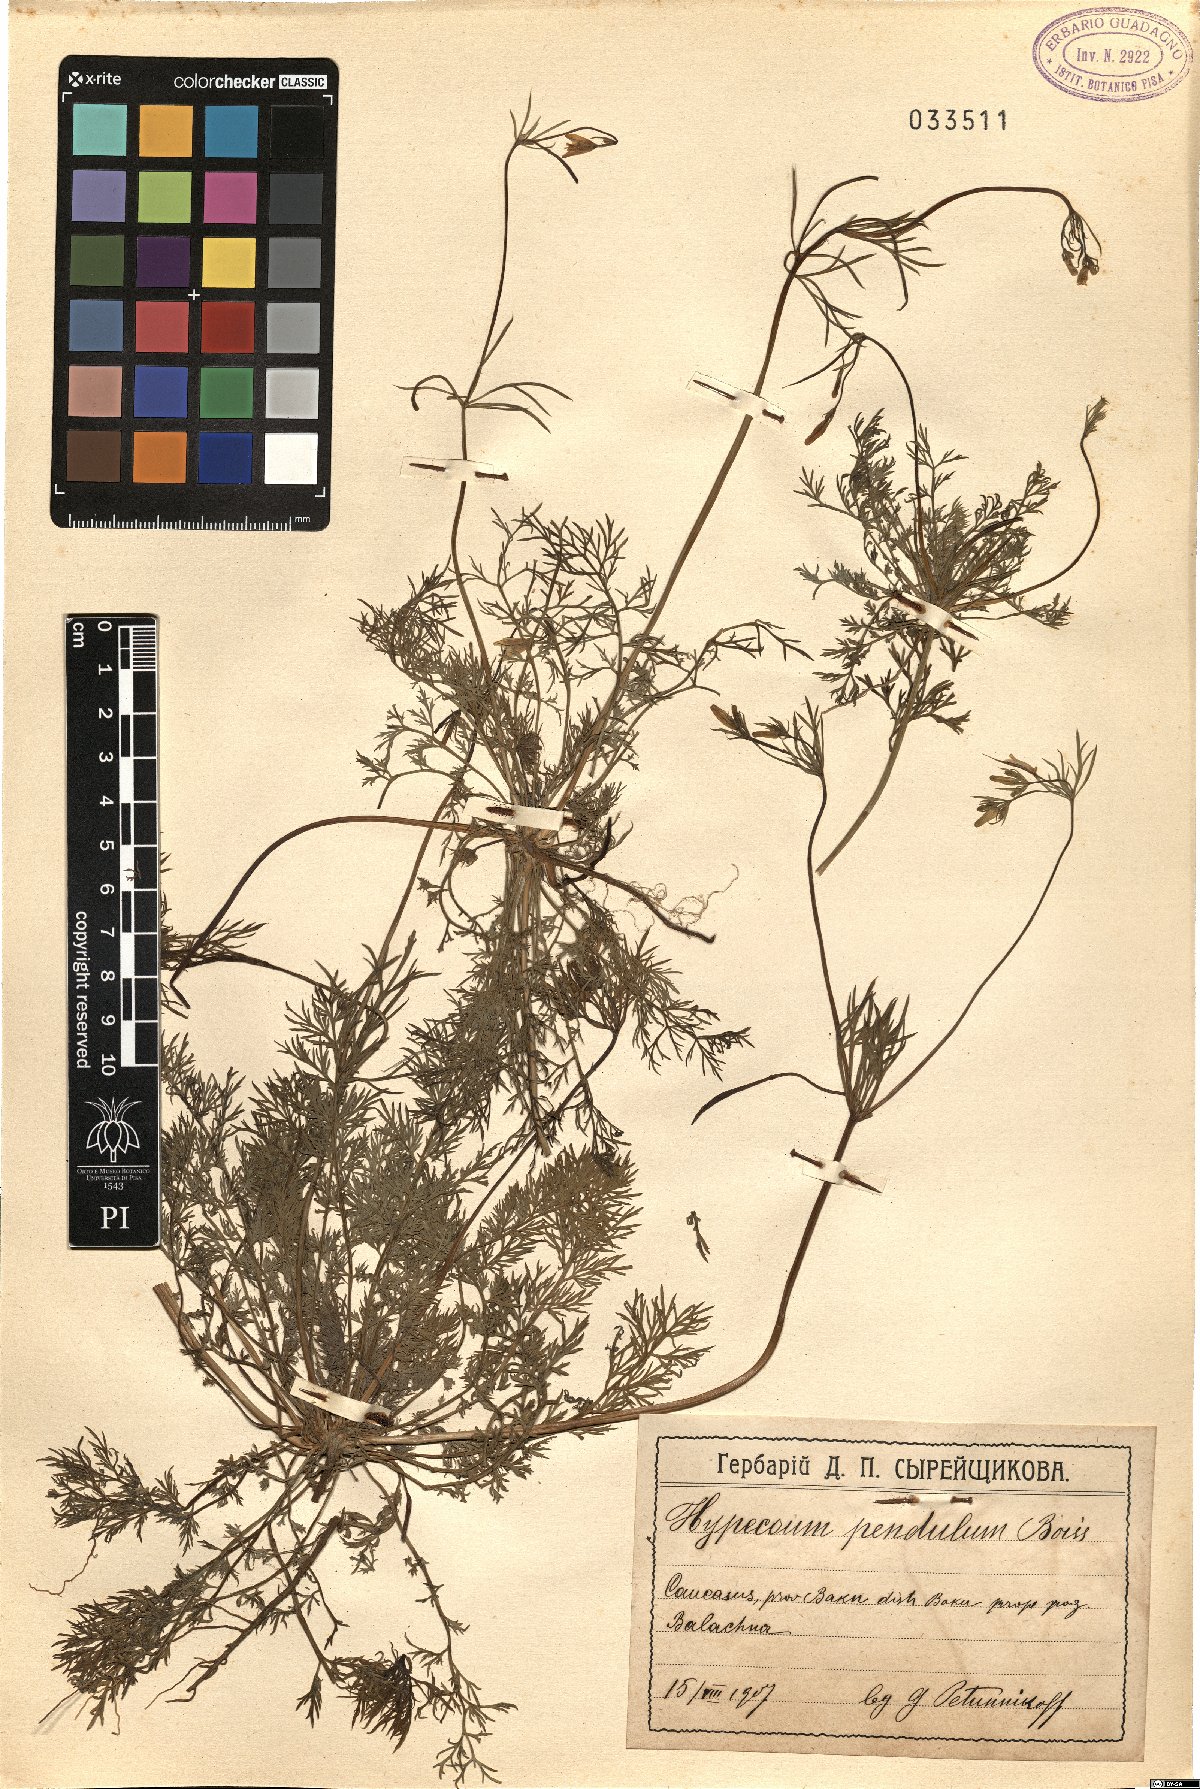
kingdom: Plantae
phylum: Tracheophyta
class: Magnoliopsida
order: Ranunculales
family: Papaveraceae
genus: Hypecoum
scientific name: Hypecoum pendulum
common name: Nodding hypecoum
